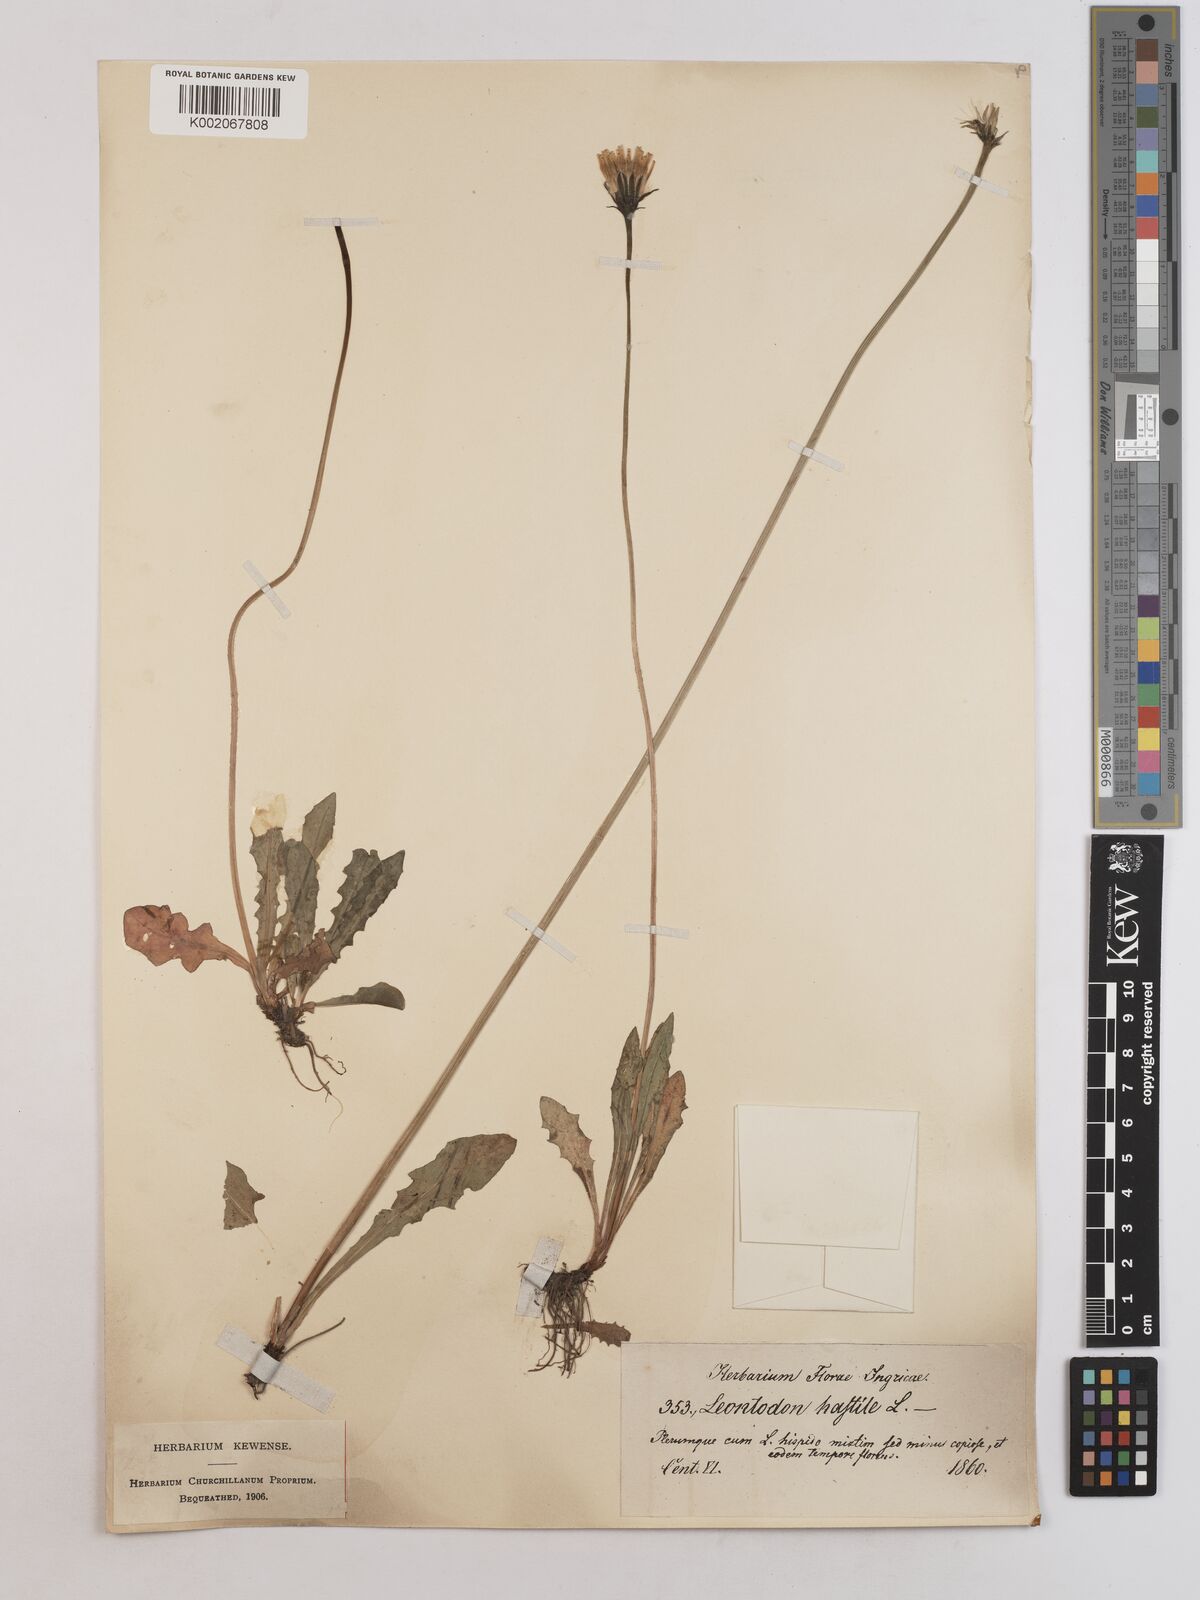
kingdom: Plantae
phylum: Tracheophyta
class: Magnoliopsida
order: Asterales
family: Asteraceae
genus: Leontodon
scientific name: Leontodon hispidus
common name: Rough hawkbit
